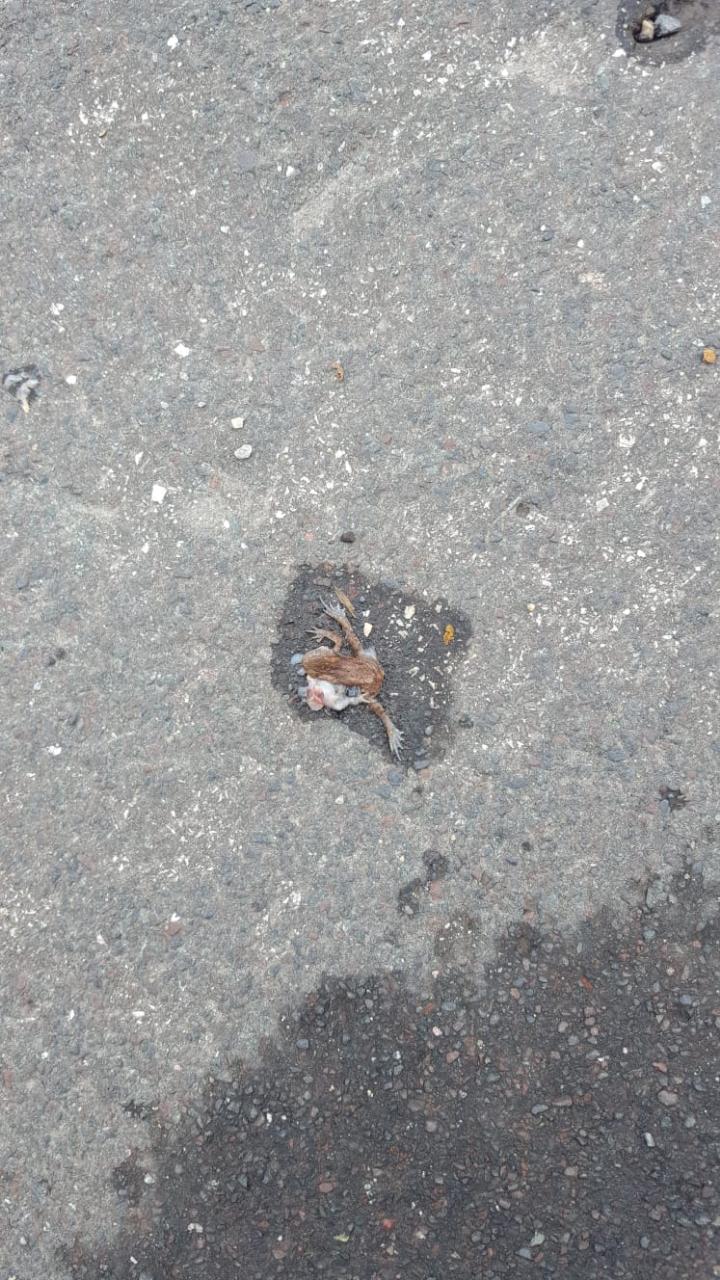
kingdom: Animalia
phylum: Chordata
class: Amphibia
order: Anura
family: Bufonidae
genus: Bufo
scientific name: Bufo bufo
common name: Common toad
